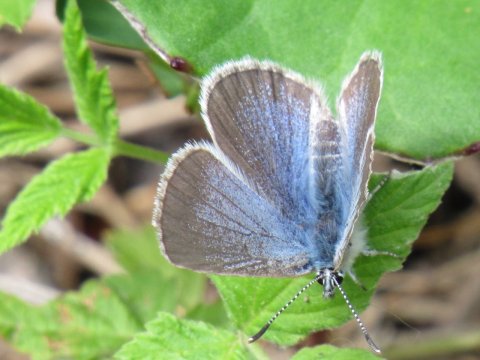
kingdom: Animalia
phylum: Arthropoda
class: Insecta
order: Lepidoptera
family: Lycaenidae
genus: Glaucopsyche
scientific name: Glaucopsyche lygdamus
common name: Silvery Blue
